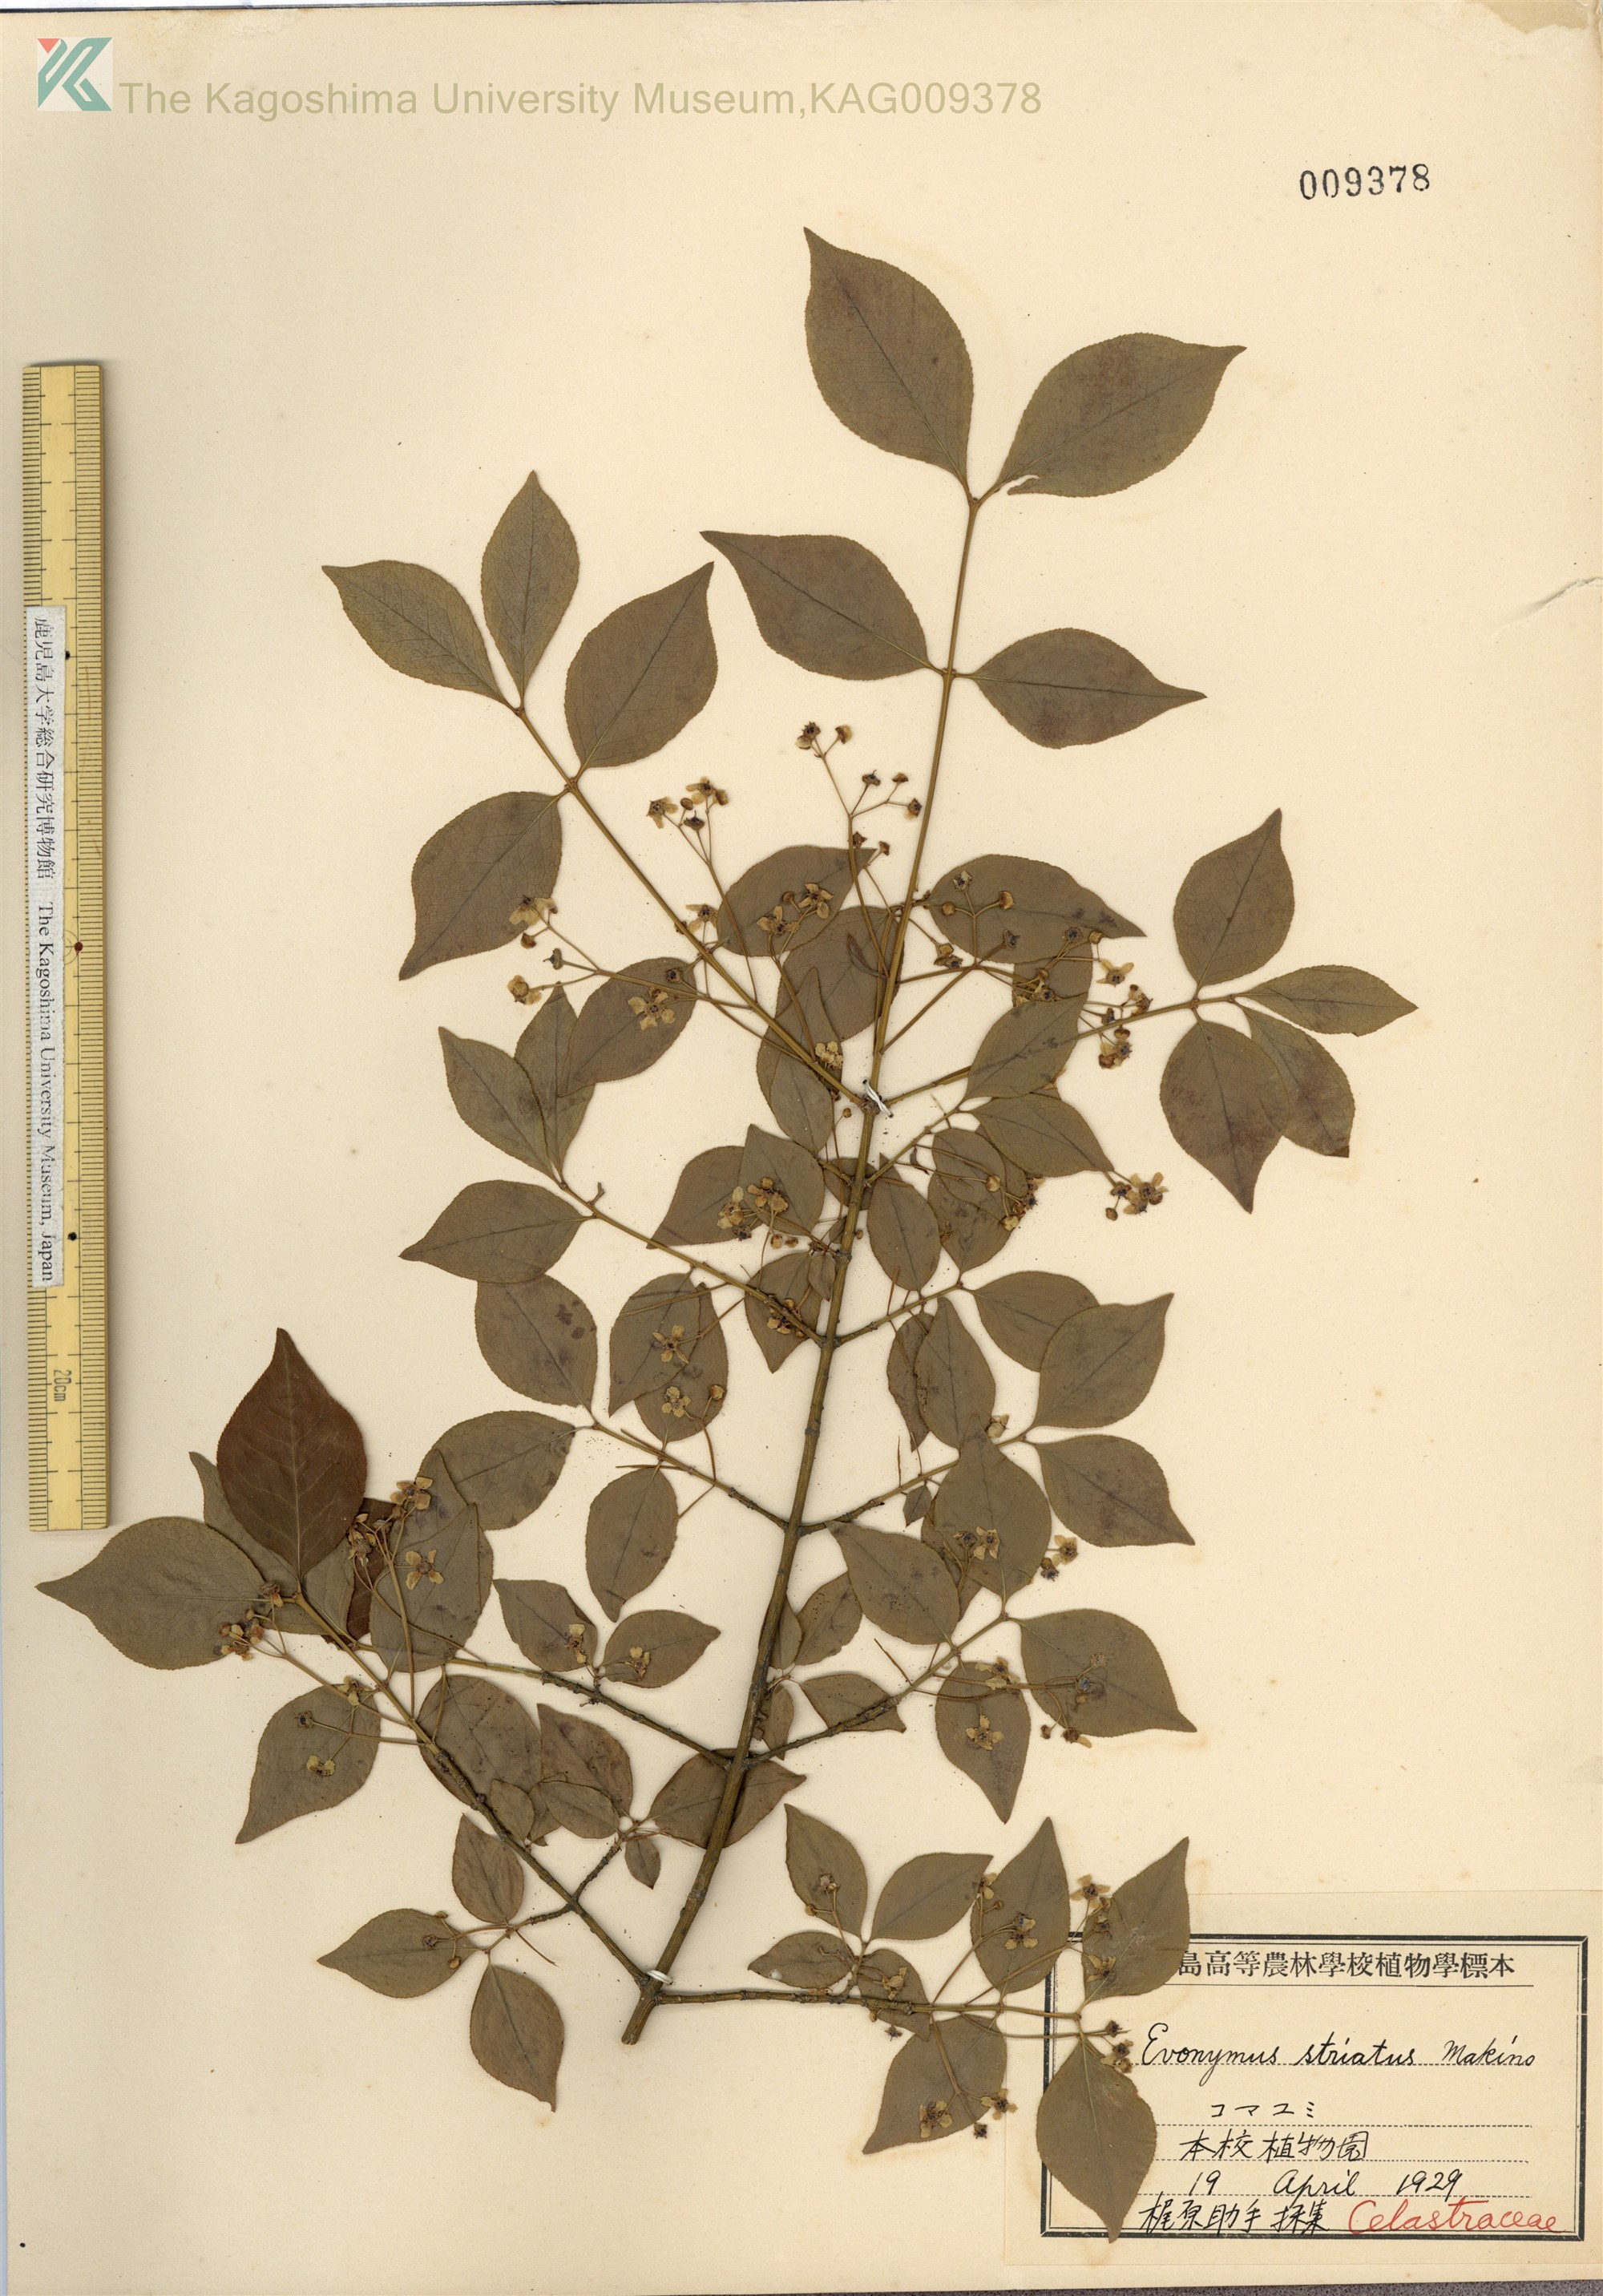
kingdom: Plantae
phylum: Tracheophyta
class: Magnoliopsida
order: Celastrales
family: Celastraceae
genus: Euonymus
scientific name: Euonymus alatus
